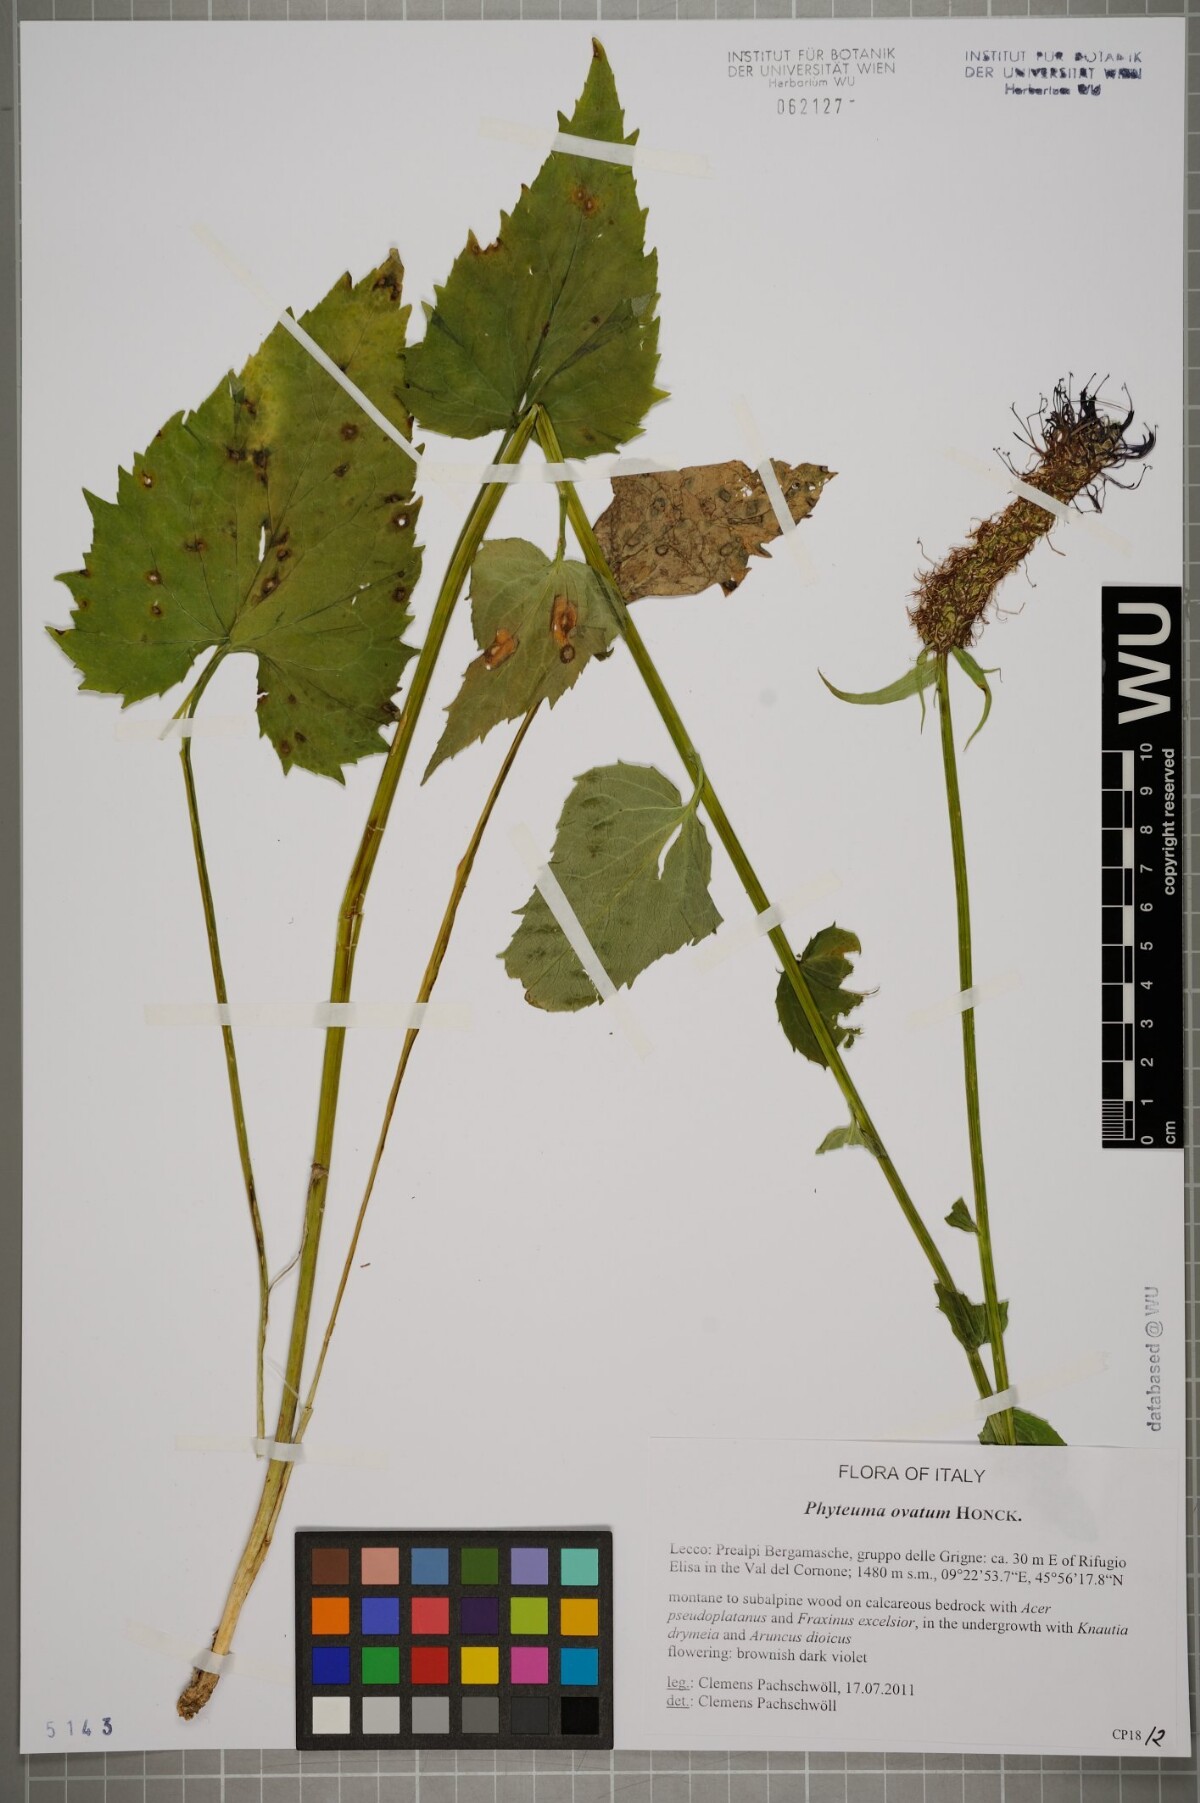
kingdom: Plantae
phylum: Tracheophyta
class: Magnoliopsida
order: Asterales
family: Campanulaceae
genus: Phyteuma
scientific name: Phyteuma ovatum
